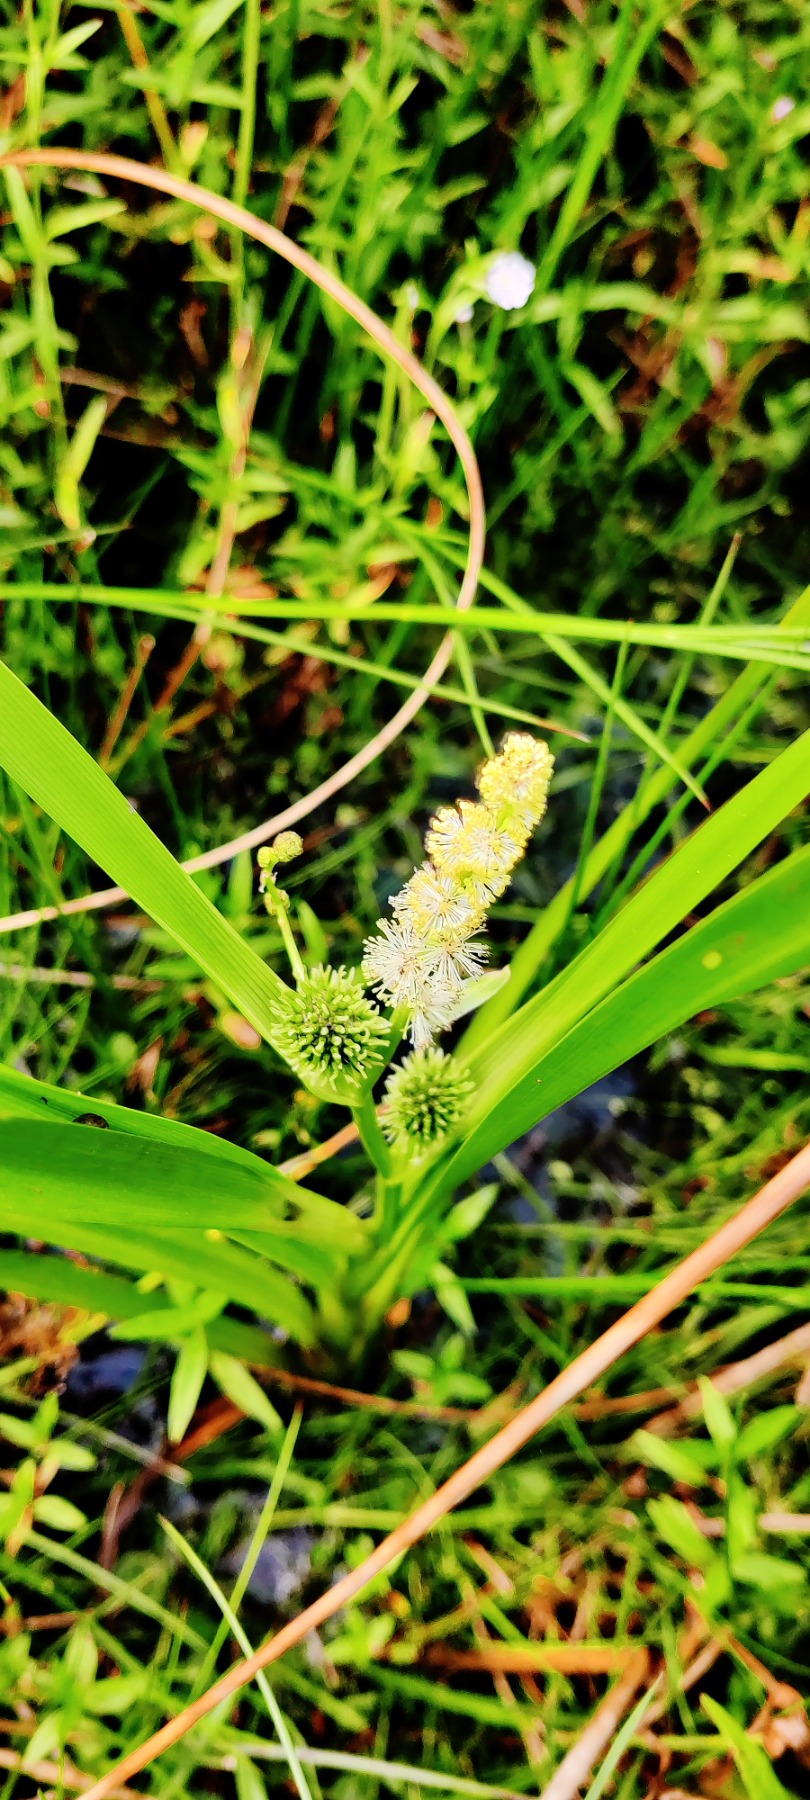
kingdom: Plantae
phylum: Tracheophyta
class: Liliopsida
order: Poales
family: Typhaceae
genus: Sparganium
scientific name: Sparganium erectum
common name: Grenet pindsvineknop
